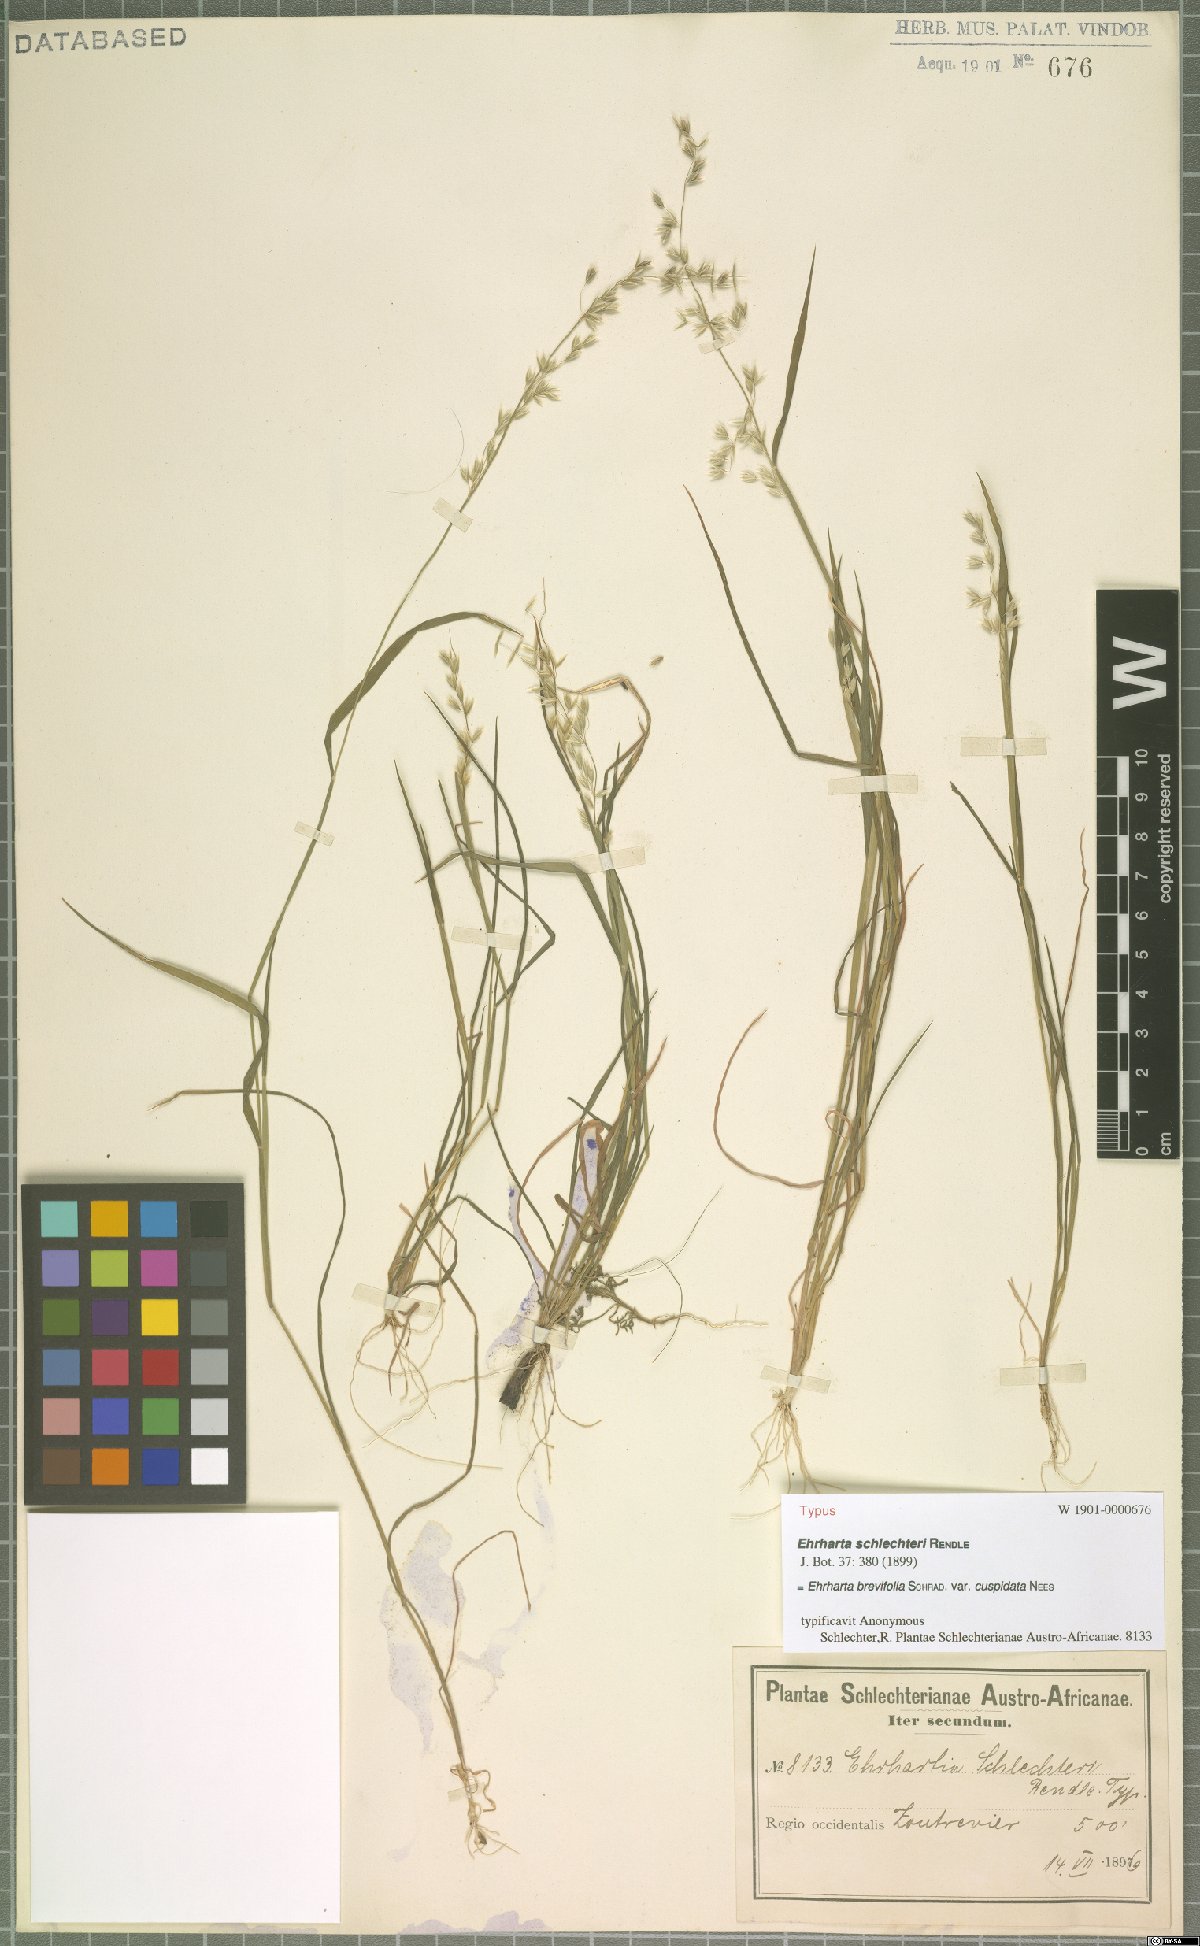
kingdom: Plantae
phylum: Tracheophyta
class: Liliopsida
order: Poales
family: Poaceae
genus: Ehrharta
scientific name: Ehrharta brevifolia
